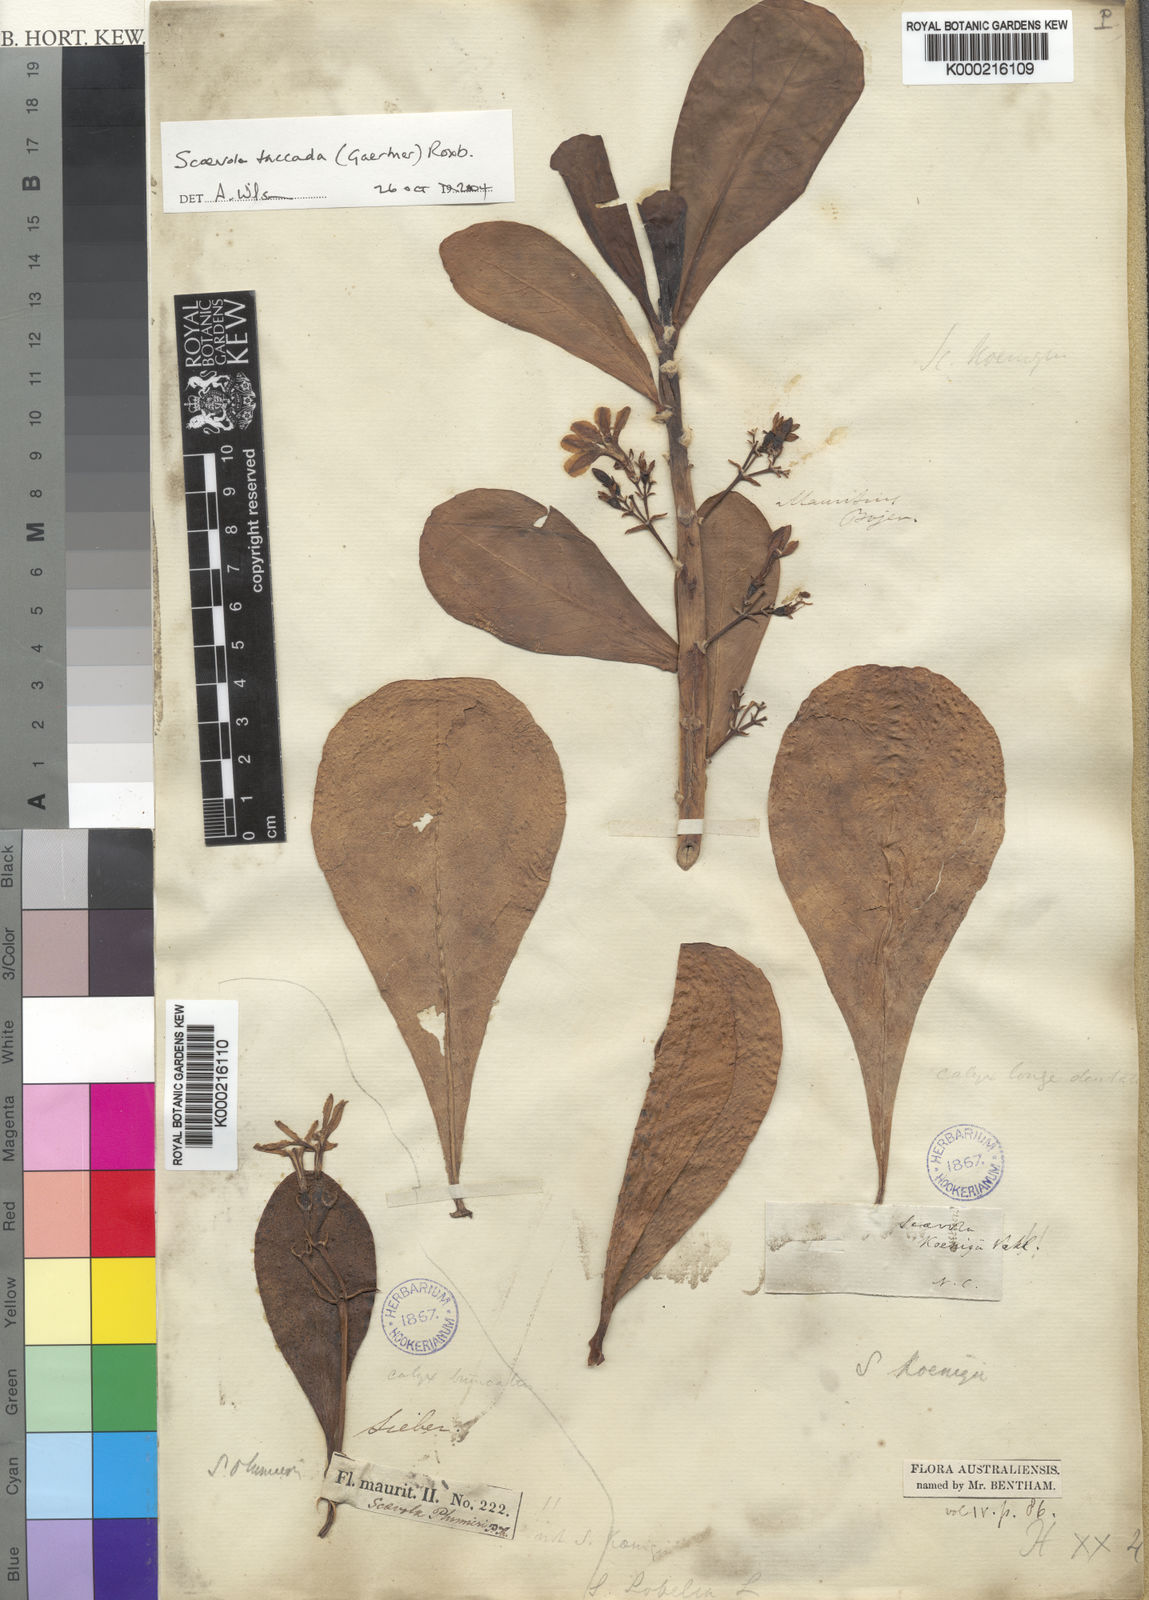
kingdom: Plantae
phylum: Tracheophyta
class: Magnoliopsida
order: Asterales
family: Goodeniaceae
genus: Scaevola
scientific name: Scaevola taccada
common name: Sea lettucetree
